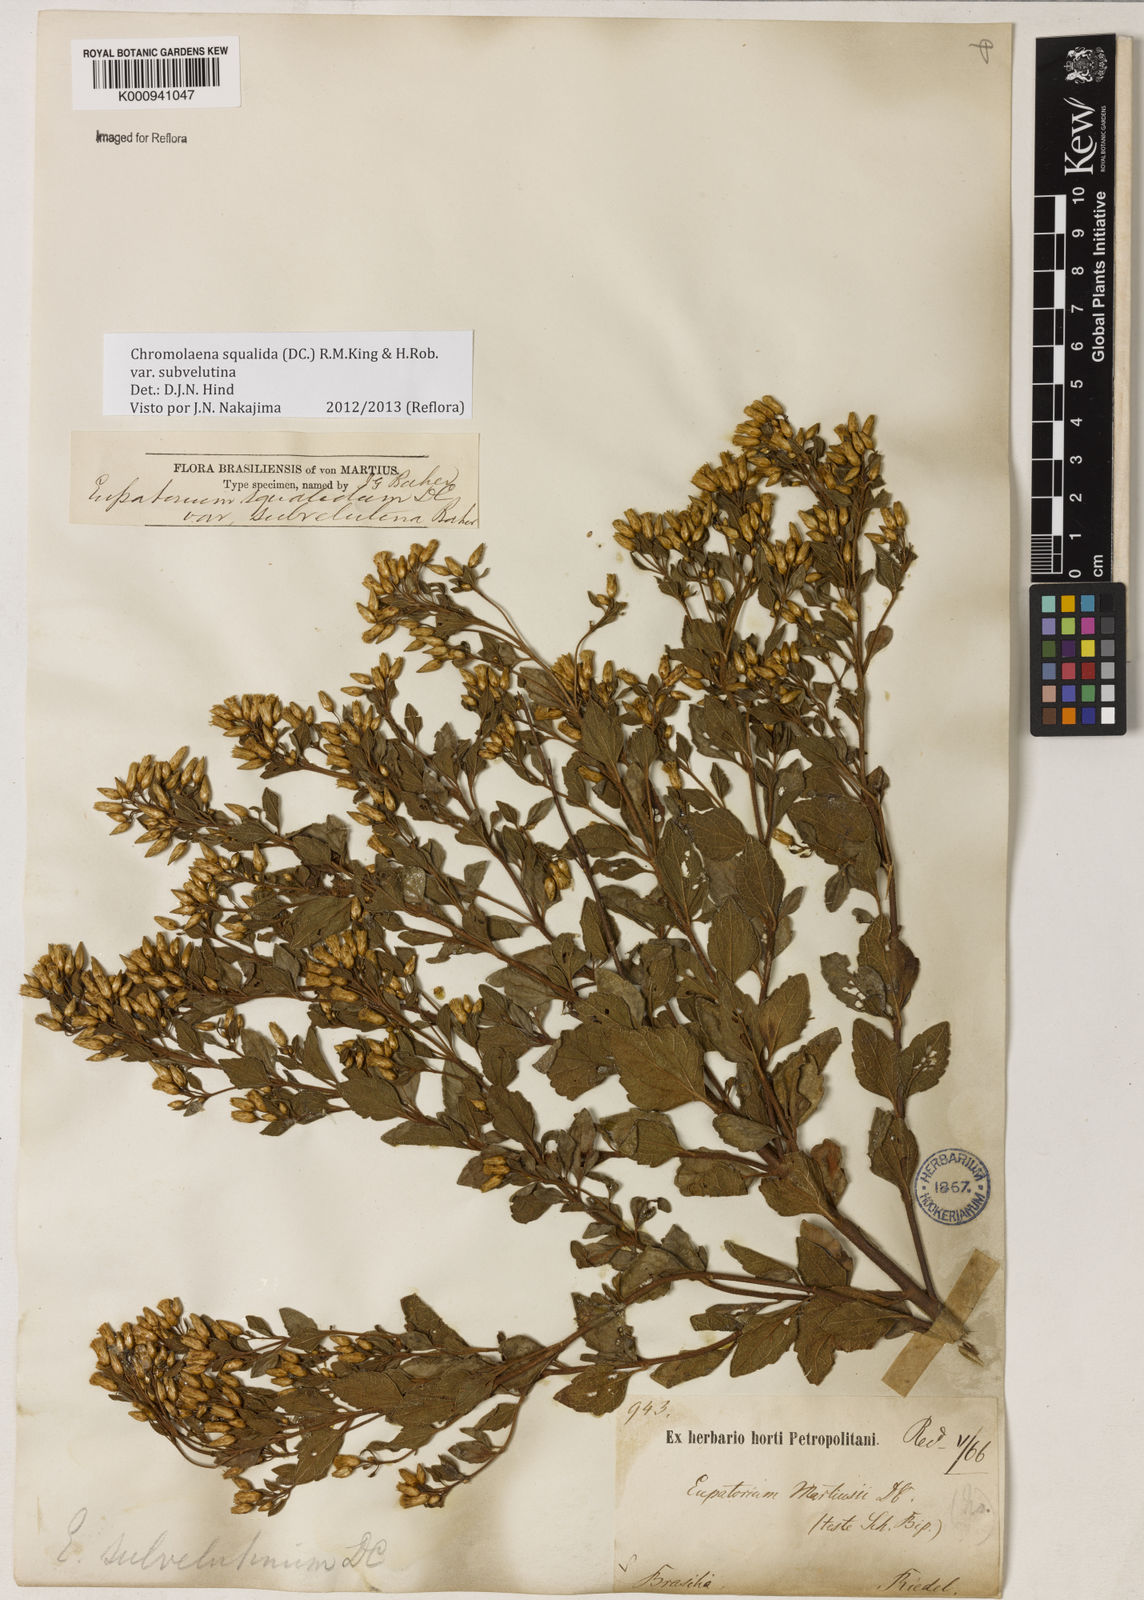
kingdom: Plantae
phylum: Tracheophyta
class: Magnoliopsida
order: Asterales
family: Asteraceae
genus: Chromolaena
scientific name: Chromolaena squalida
